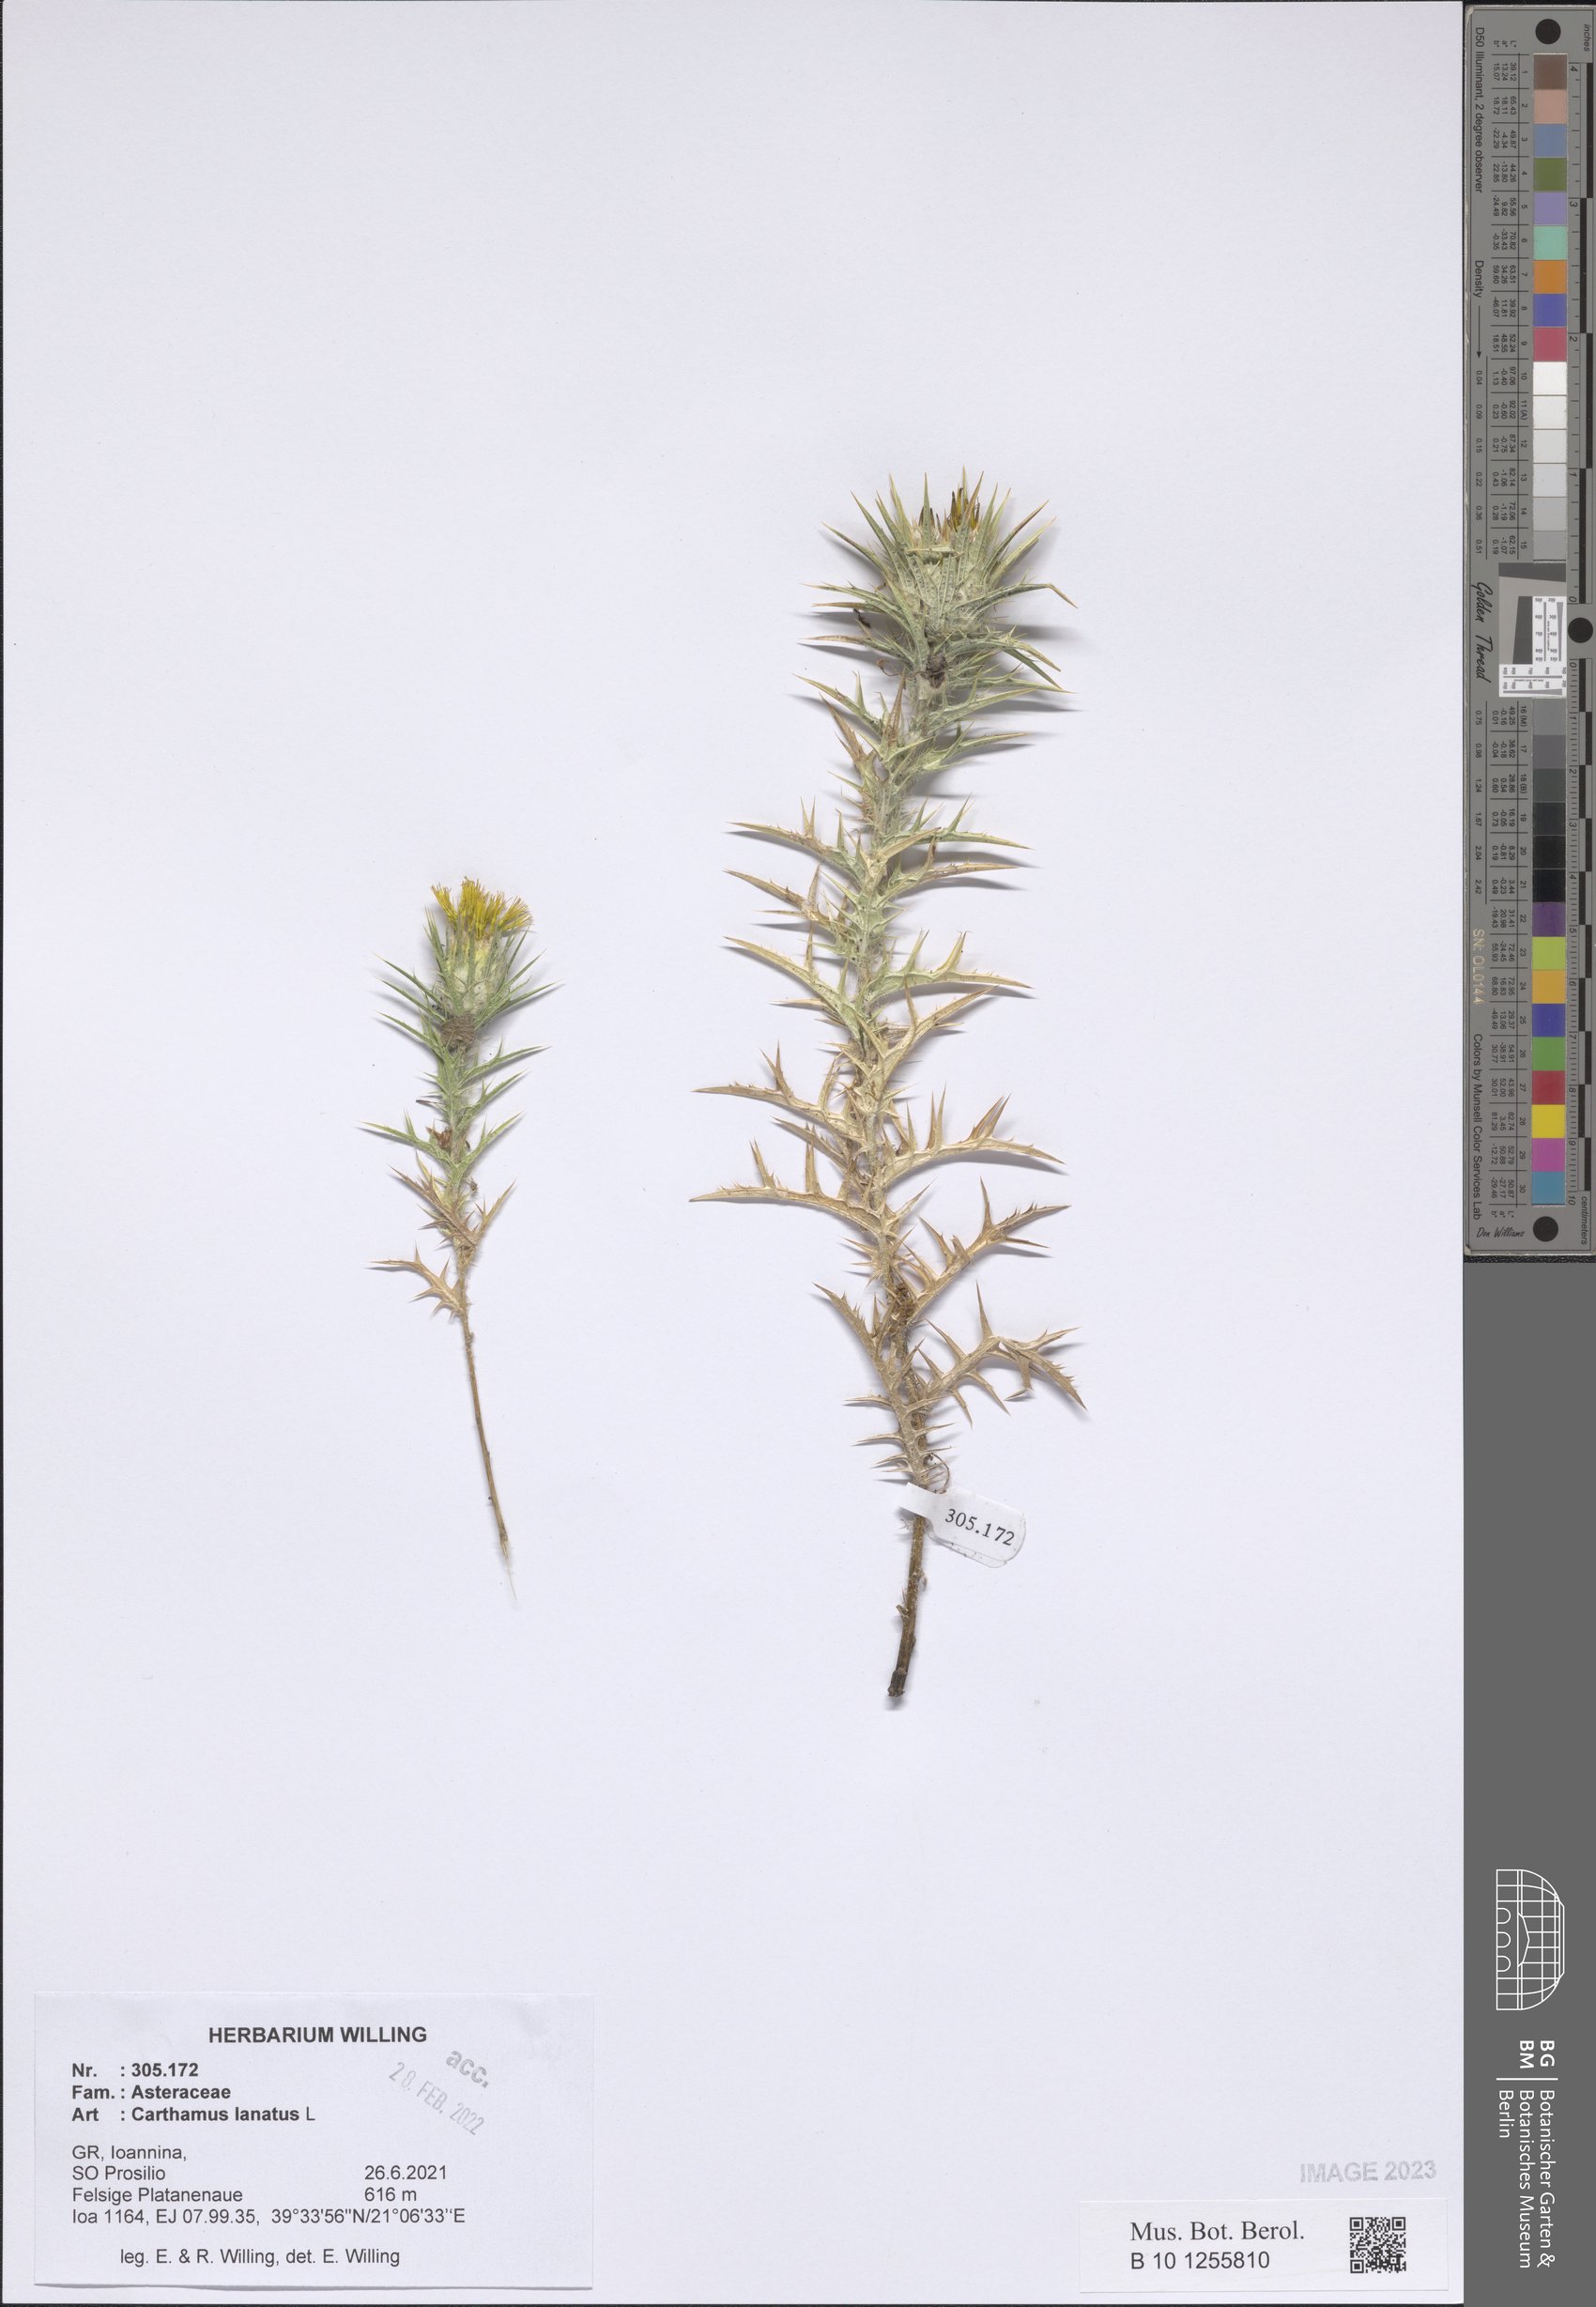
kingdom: Plantae
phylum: Tracheophyta
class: Magnoliopsida
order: Asterales
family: Asteraceae
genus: Carthamus
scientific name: Carthamus lanatus
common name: Downy safflower
